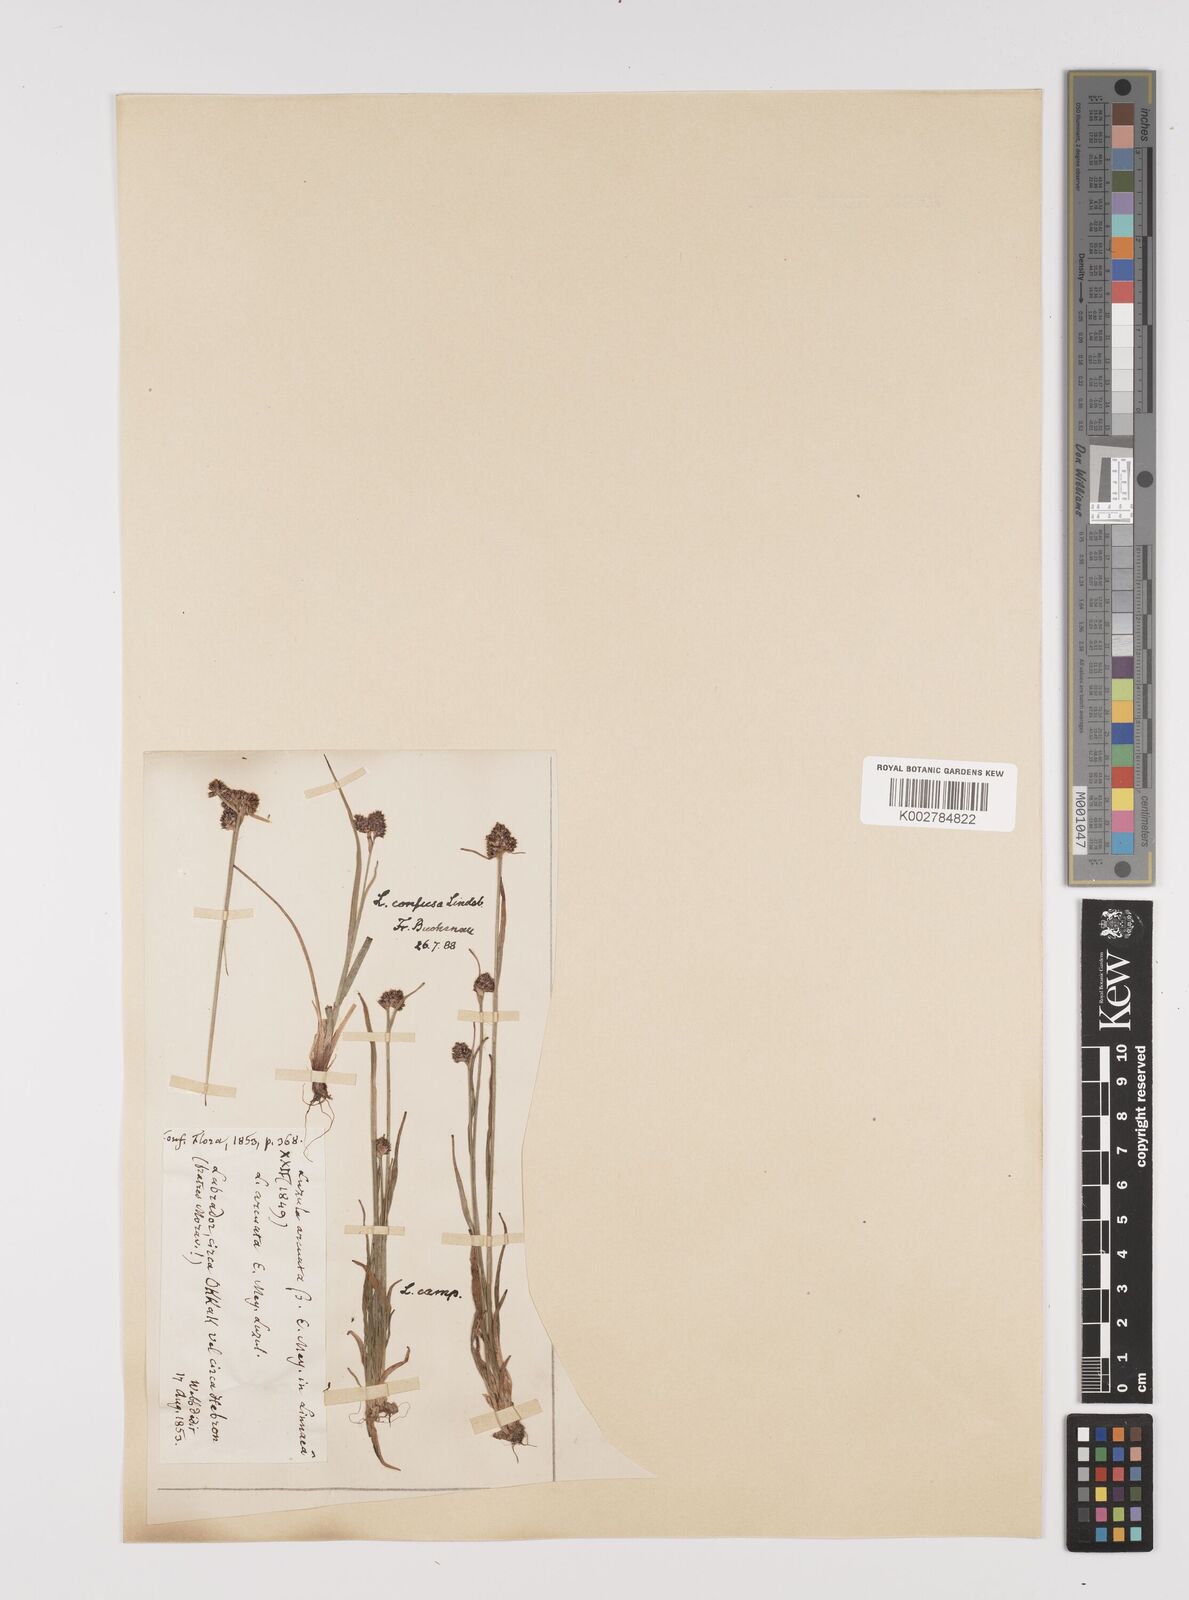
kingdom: Plantae
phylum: Tracheophyta
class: Liliopsida
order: Poales
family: Juncaceae
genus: Luzula
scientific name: Luzula confusa
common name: Northern wood rush
